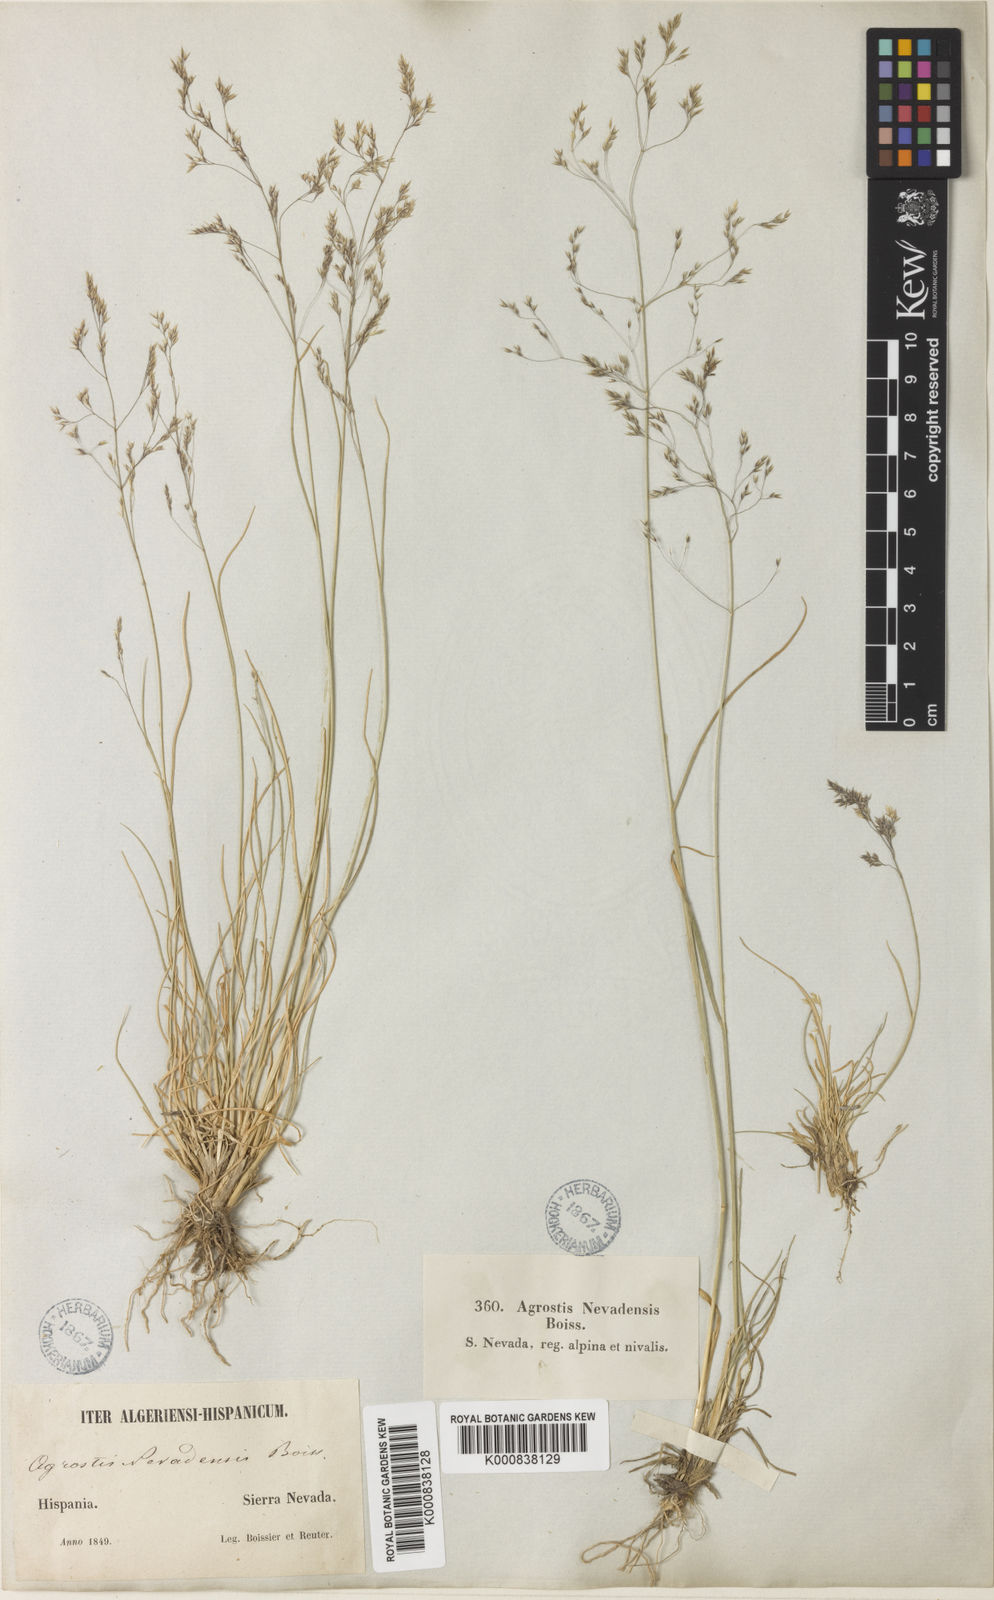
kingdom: Plantae
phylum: Tracheophyta
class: Liliopsida
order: Poales
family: Poaceae
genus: Agrostis
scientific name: Agrostis nevadensis
